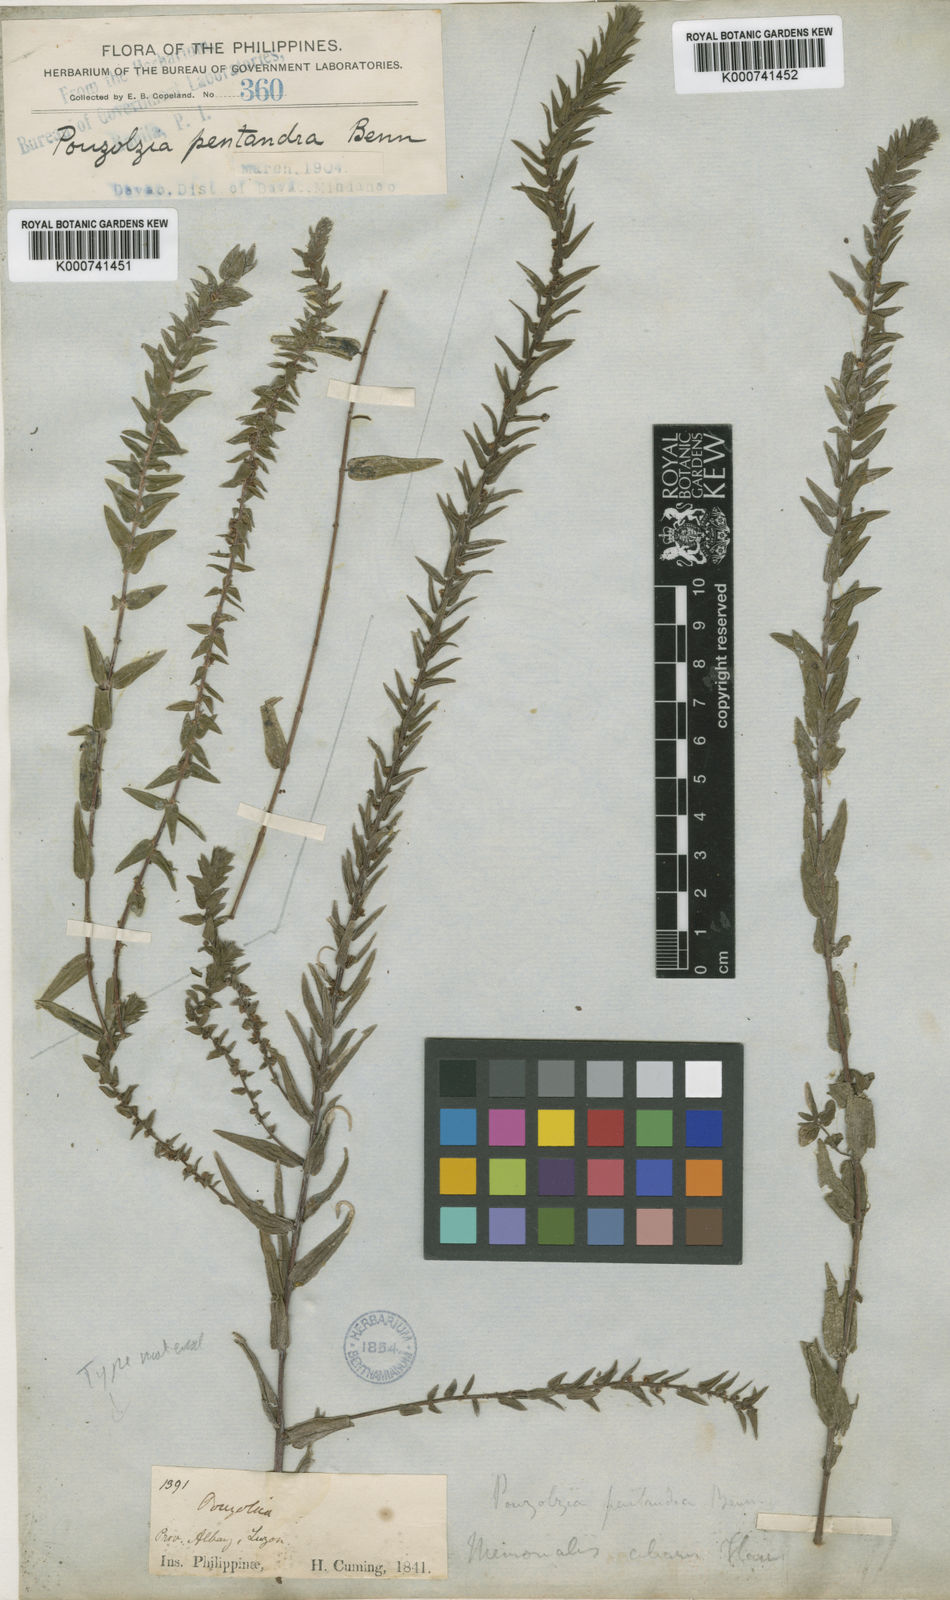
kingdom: Plantae
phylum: Tracheophyta
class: Magnoliopsida
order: Rosales
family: Urticaceae
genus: Gonostegia
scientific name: Gonostegia pentandra
